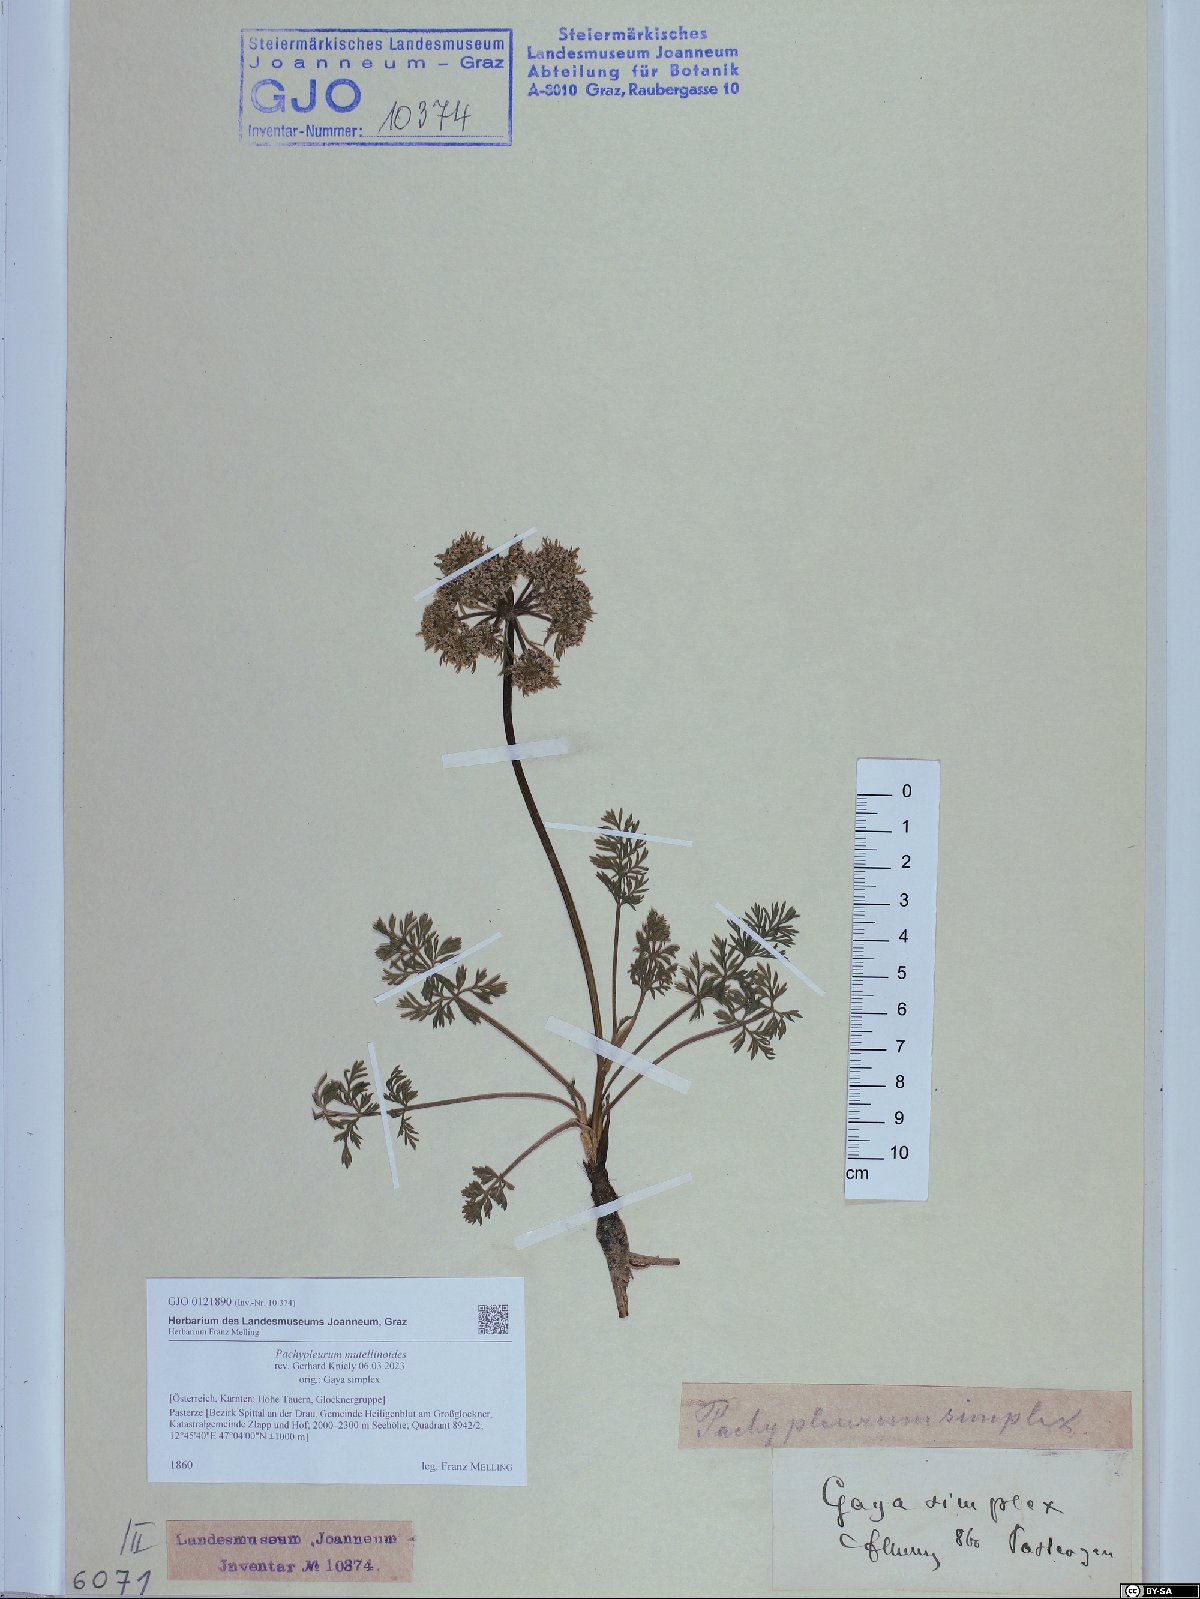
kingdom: Plantae
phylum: Tracheophyta
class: Magnoliopsida
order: Apiales
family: Apiaceae
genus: Pachypleurum
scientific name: Pachypleurum mutellinoides
